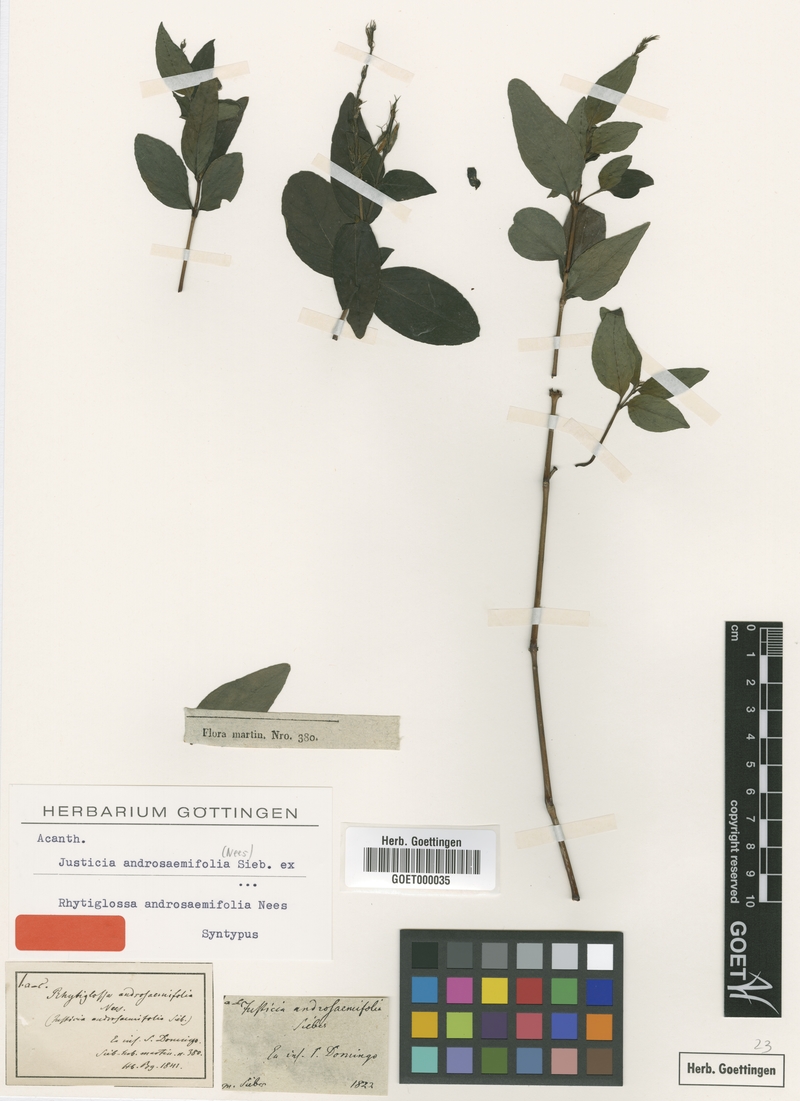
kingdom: Plantae
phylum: Tracheophyta
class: Magnoliopsida
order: Lamiales
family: Acanthaceae
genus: Dianthera
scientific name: Dianthera androsaemifolia
